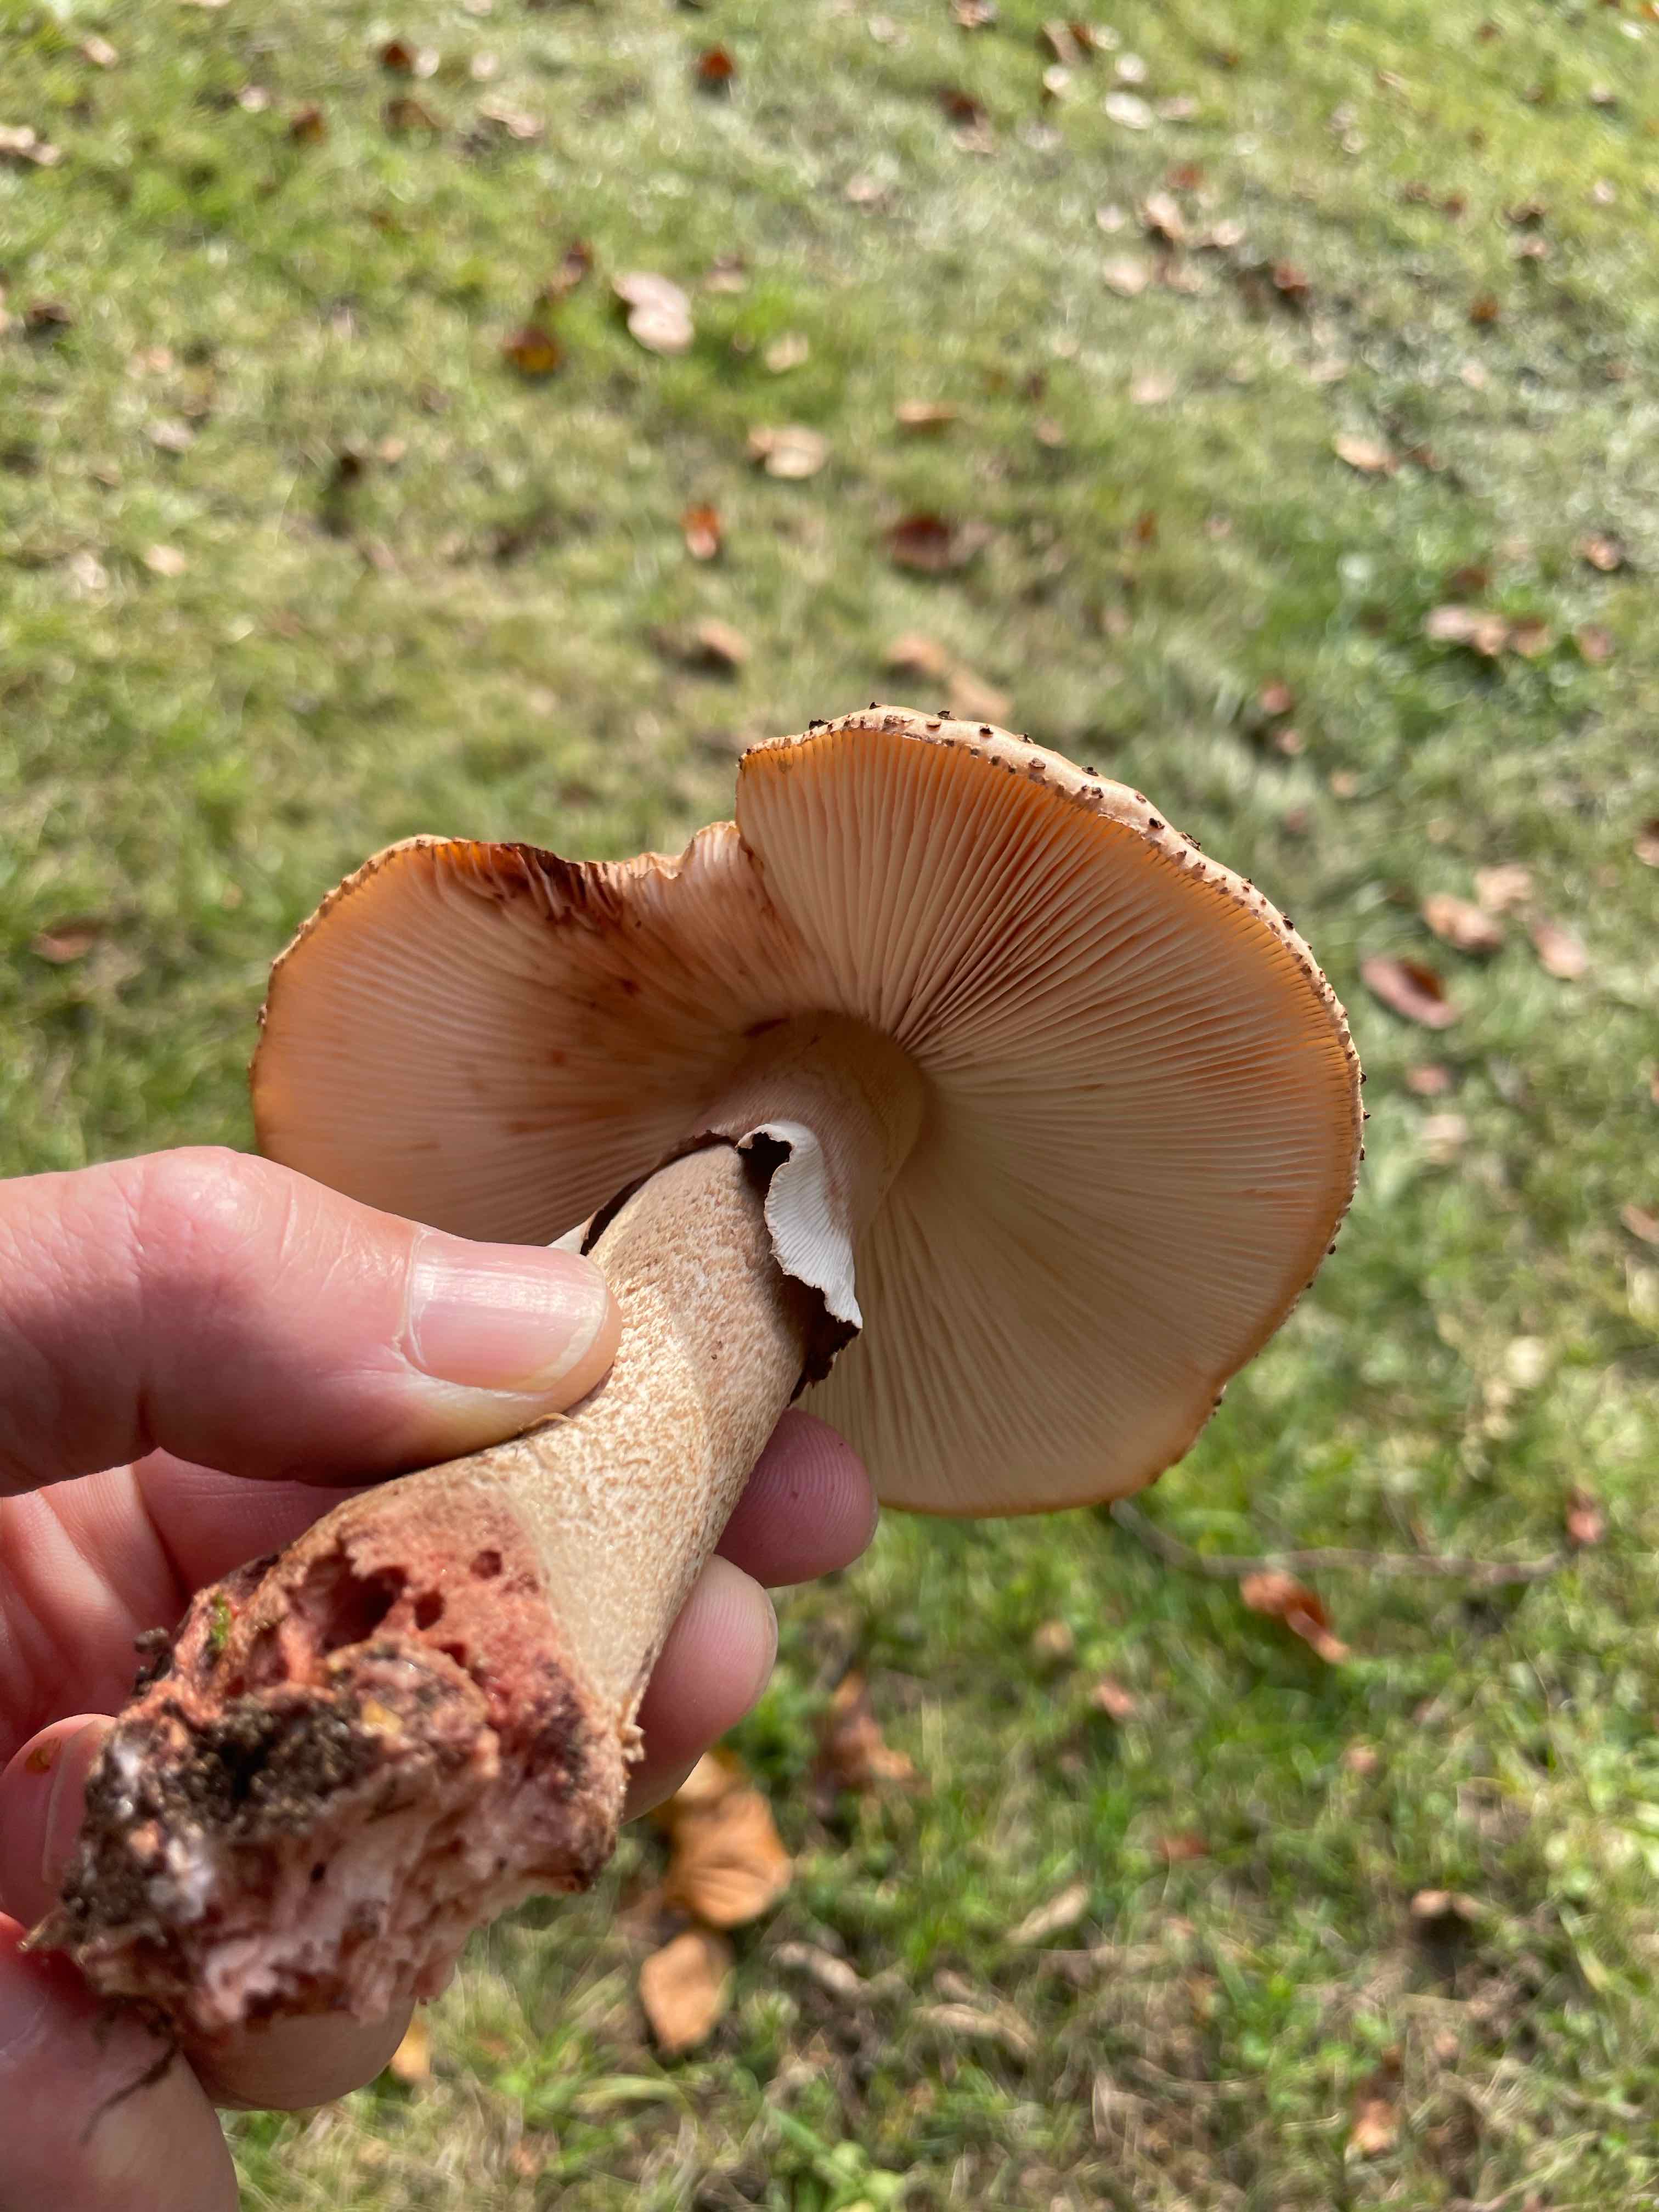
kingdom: Fungi
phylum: Basidiomycota
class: Agaricomycetes
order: Agaricales
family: Amanitaceae
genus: Amanita
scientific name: Amanita rubescens
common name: rødmende fluesvamp
